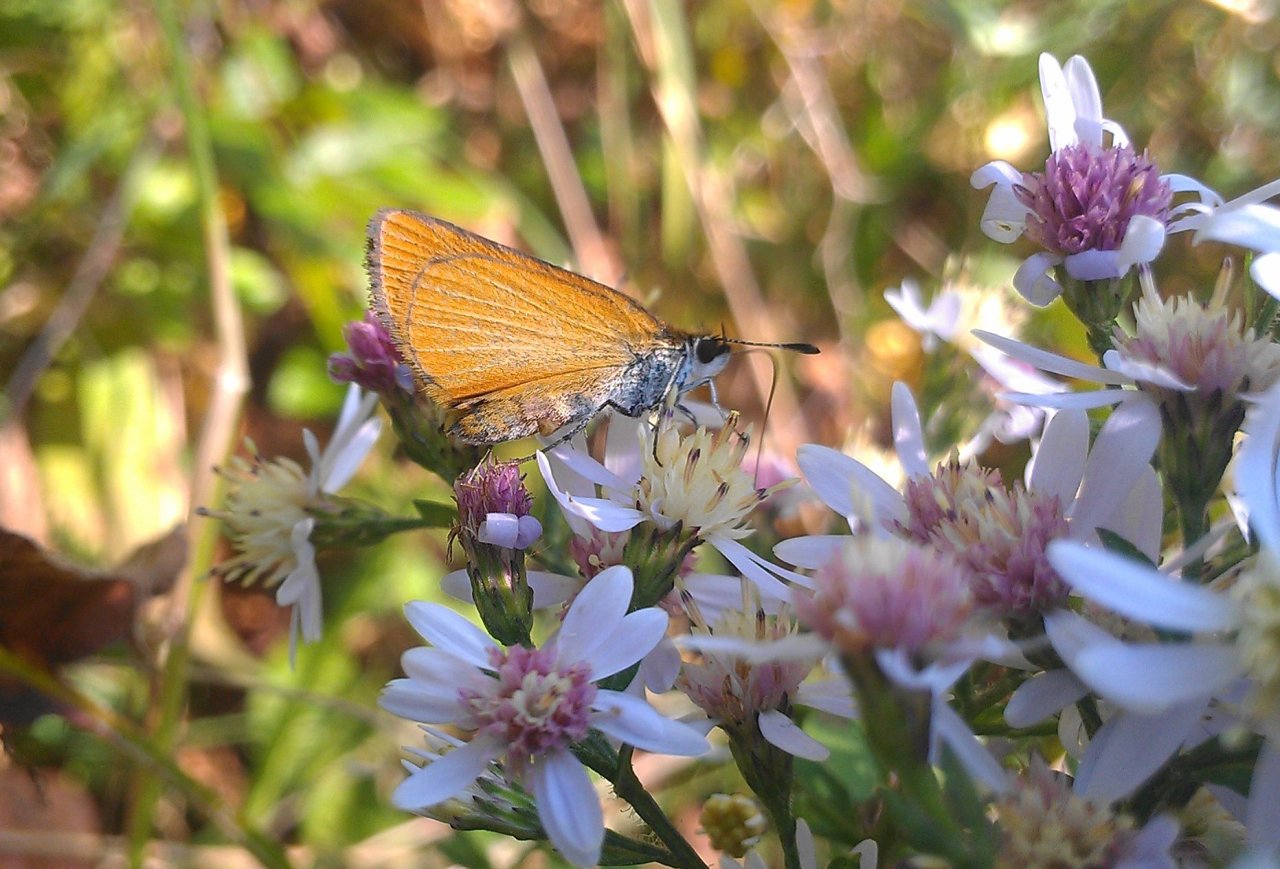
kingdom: Animalia
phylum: Arthropoda
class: Insecta
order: Lepidoptera
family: Hesperiidae
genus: Ancyloxypha
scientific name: Ancyloxypha numitor
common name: Least Skipper
